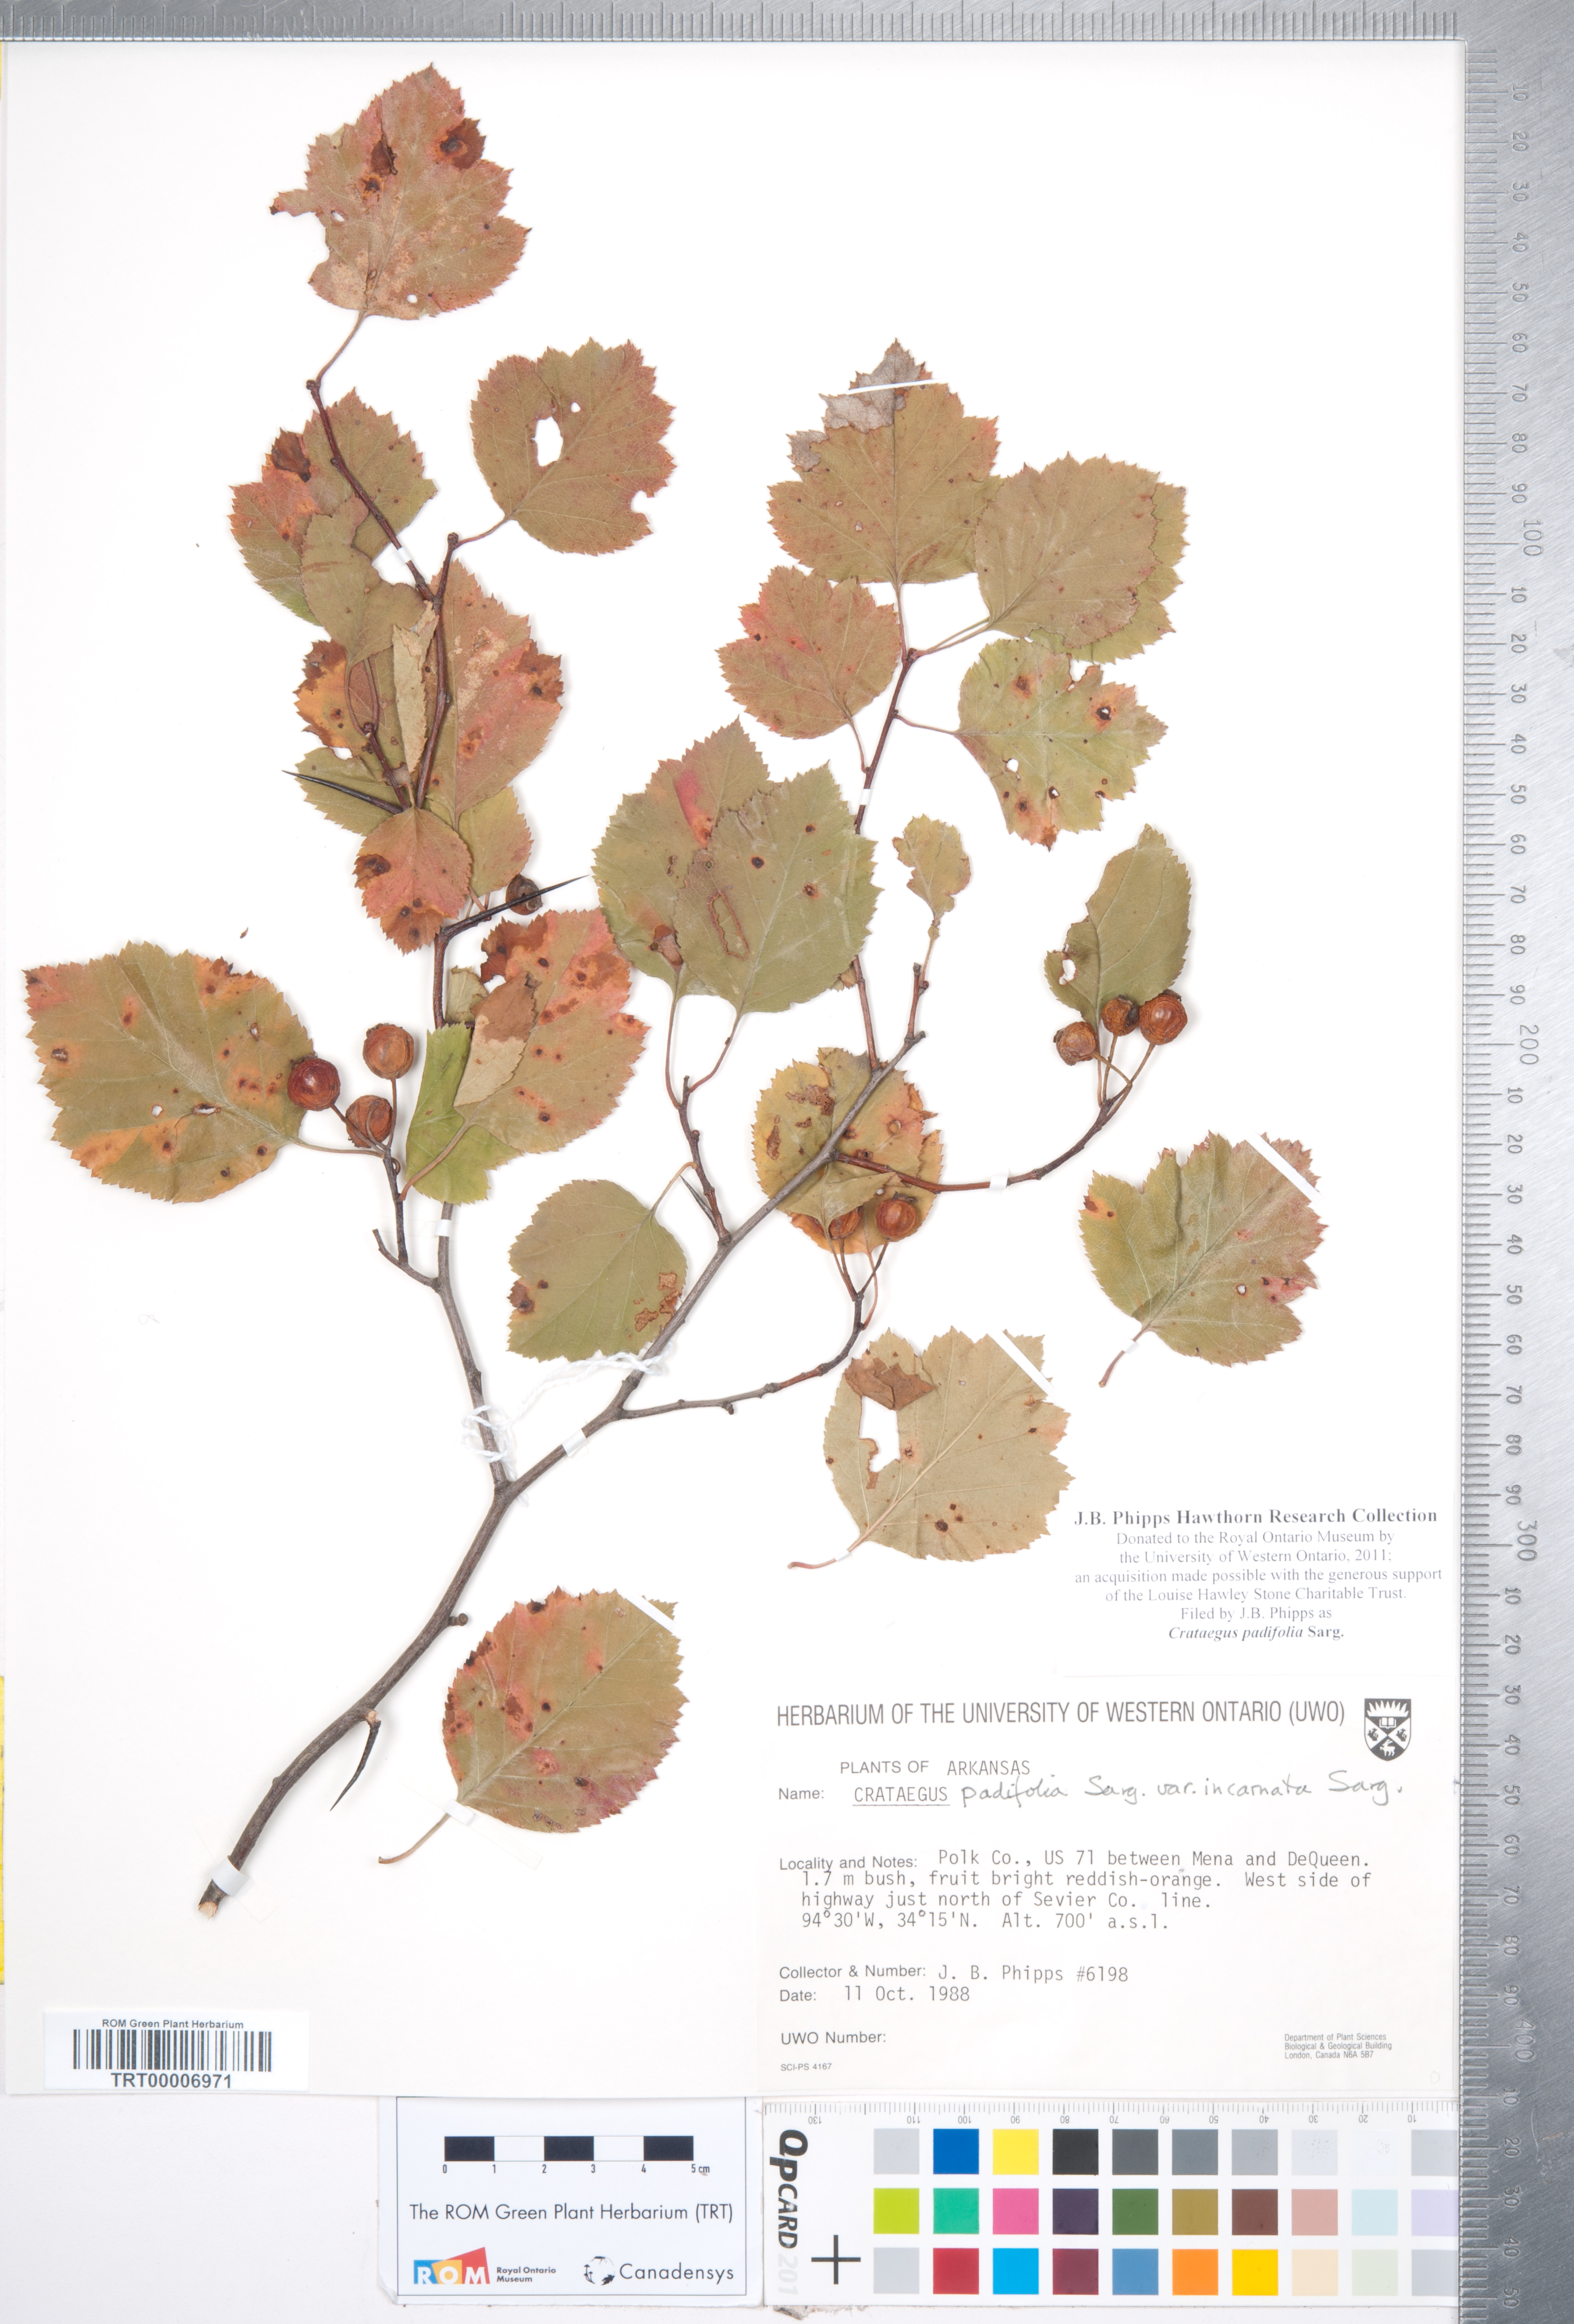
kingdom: Plantae
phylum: Tracheophyta
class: Magnoliopsida
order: Rosales
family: Rosaceae
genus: Crataegus
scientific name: Crataegus padifolia
